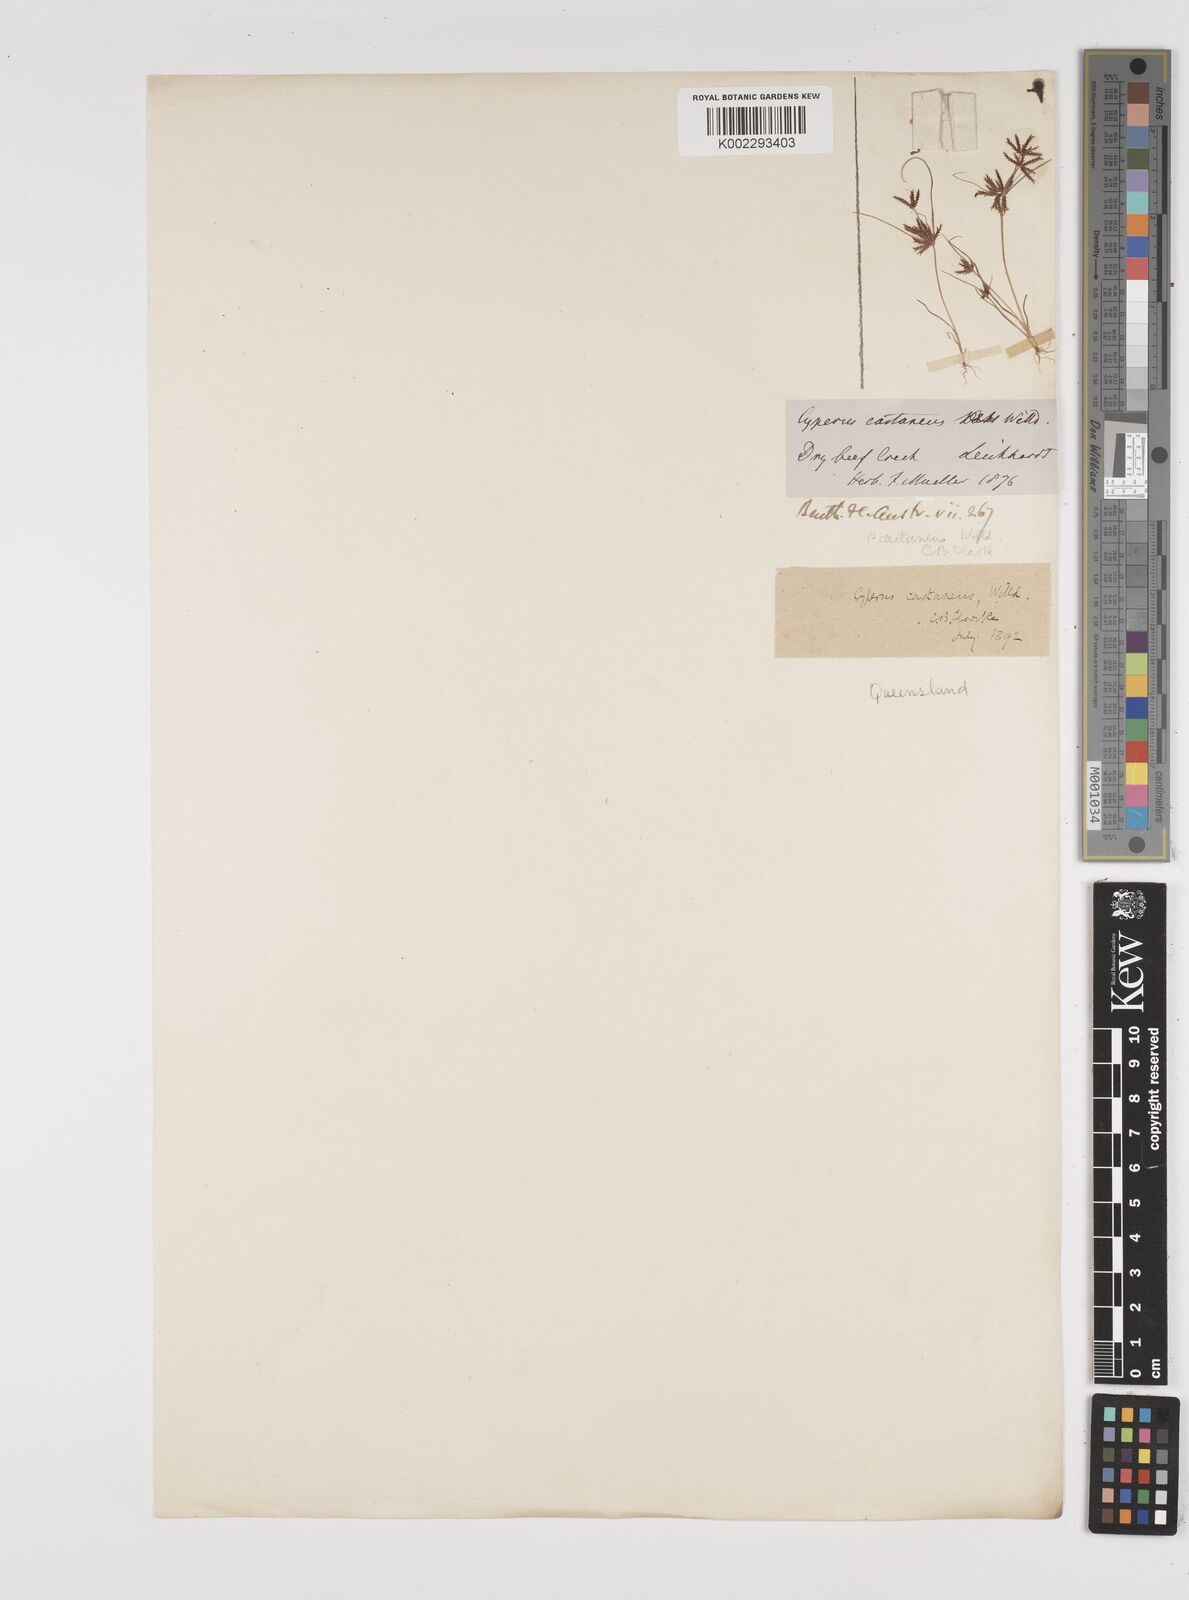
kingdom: Plantae
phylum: Tracheophyta
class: Liliopsida
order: Poales
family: Cyperaceae
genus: Cyperus
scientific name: Cyperus castaneus
